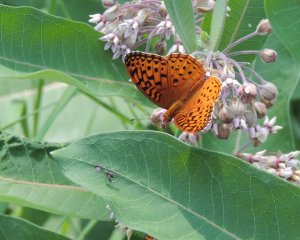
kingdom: Animalia
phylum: Arthropoda
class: Insecta
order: Lepidoptera
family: Nymphalidae
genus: Speyeria
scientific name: Speyeria aphrodite
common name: Aphrodite Fritillary
